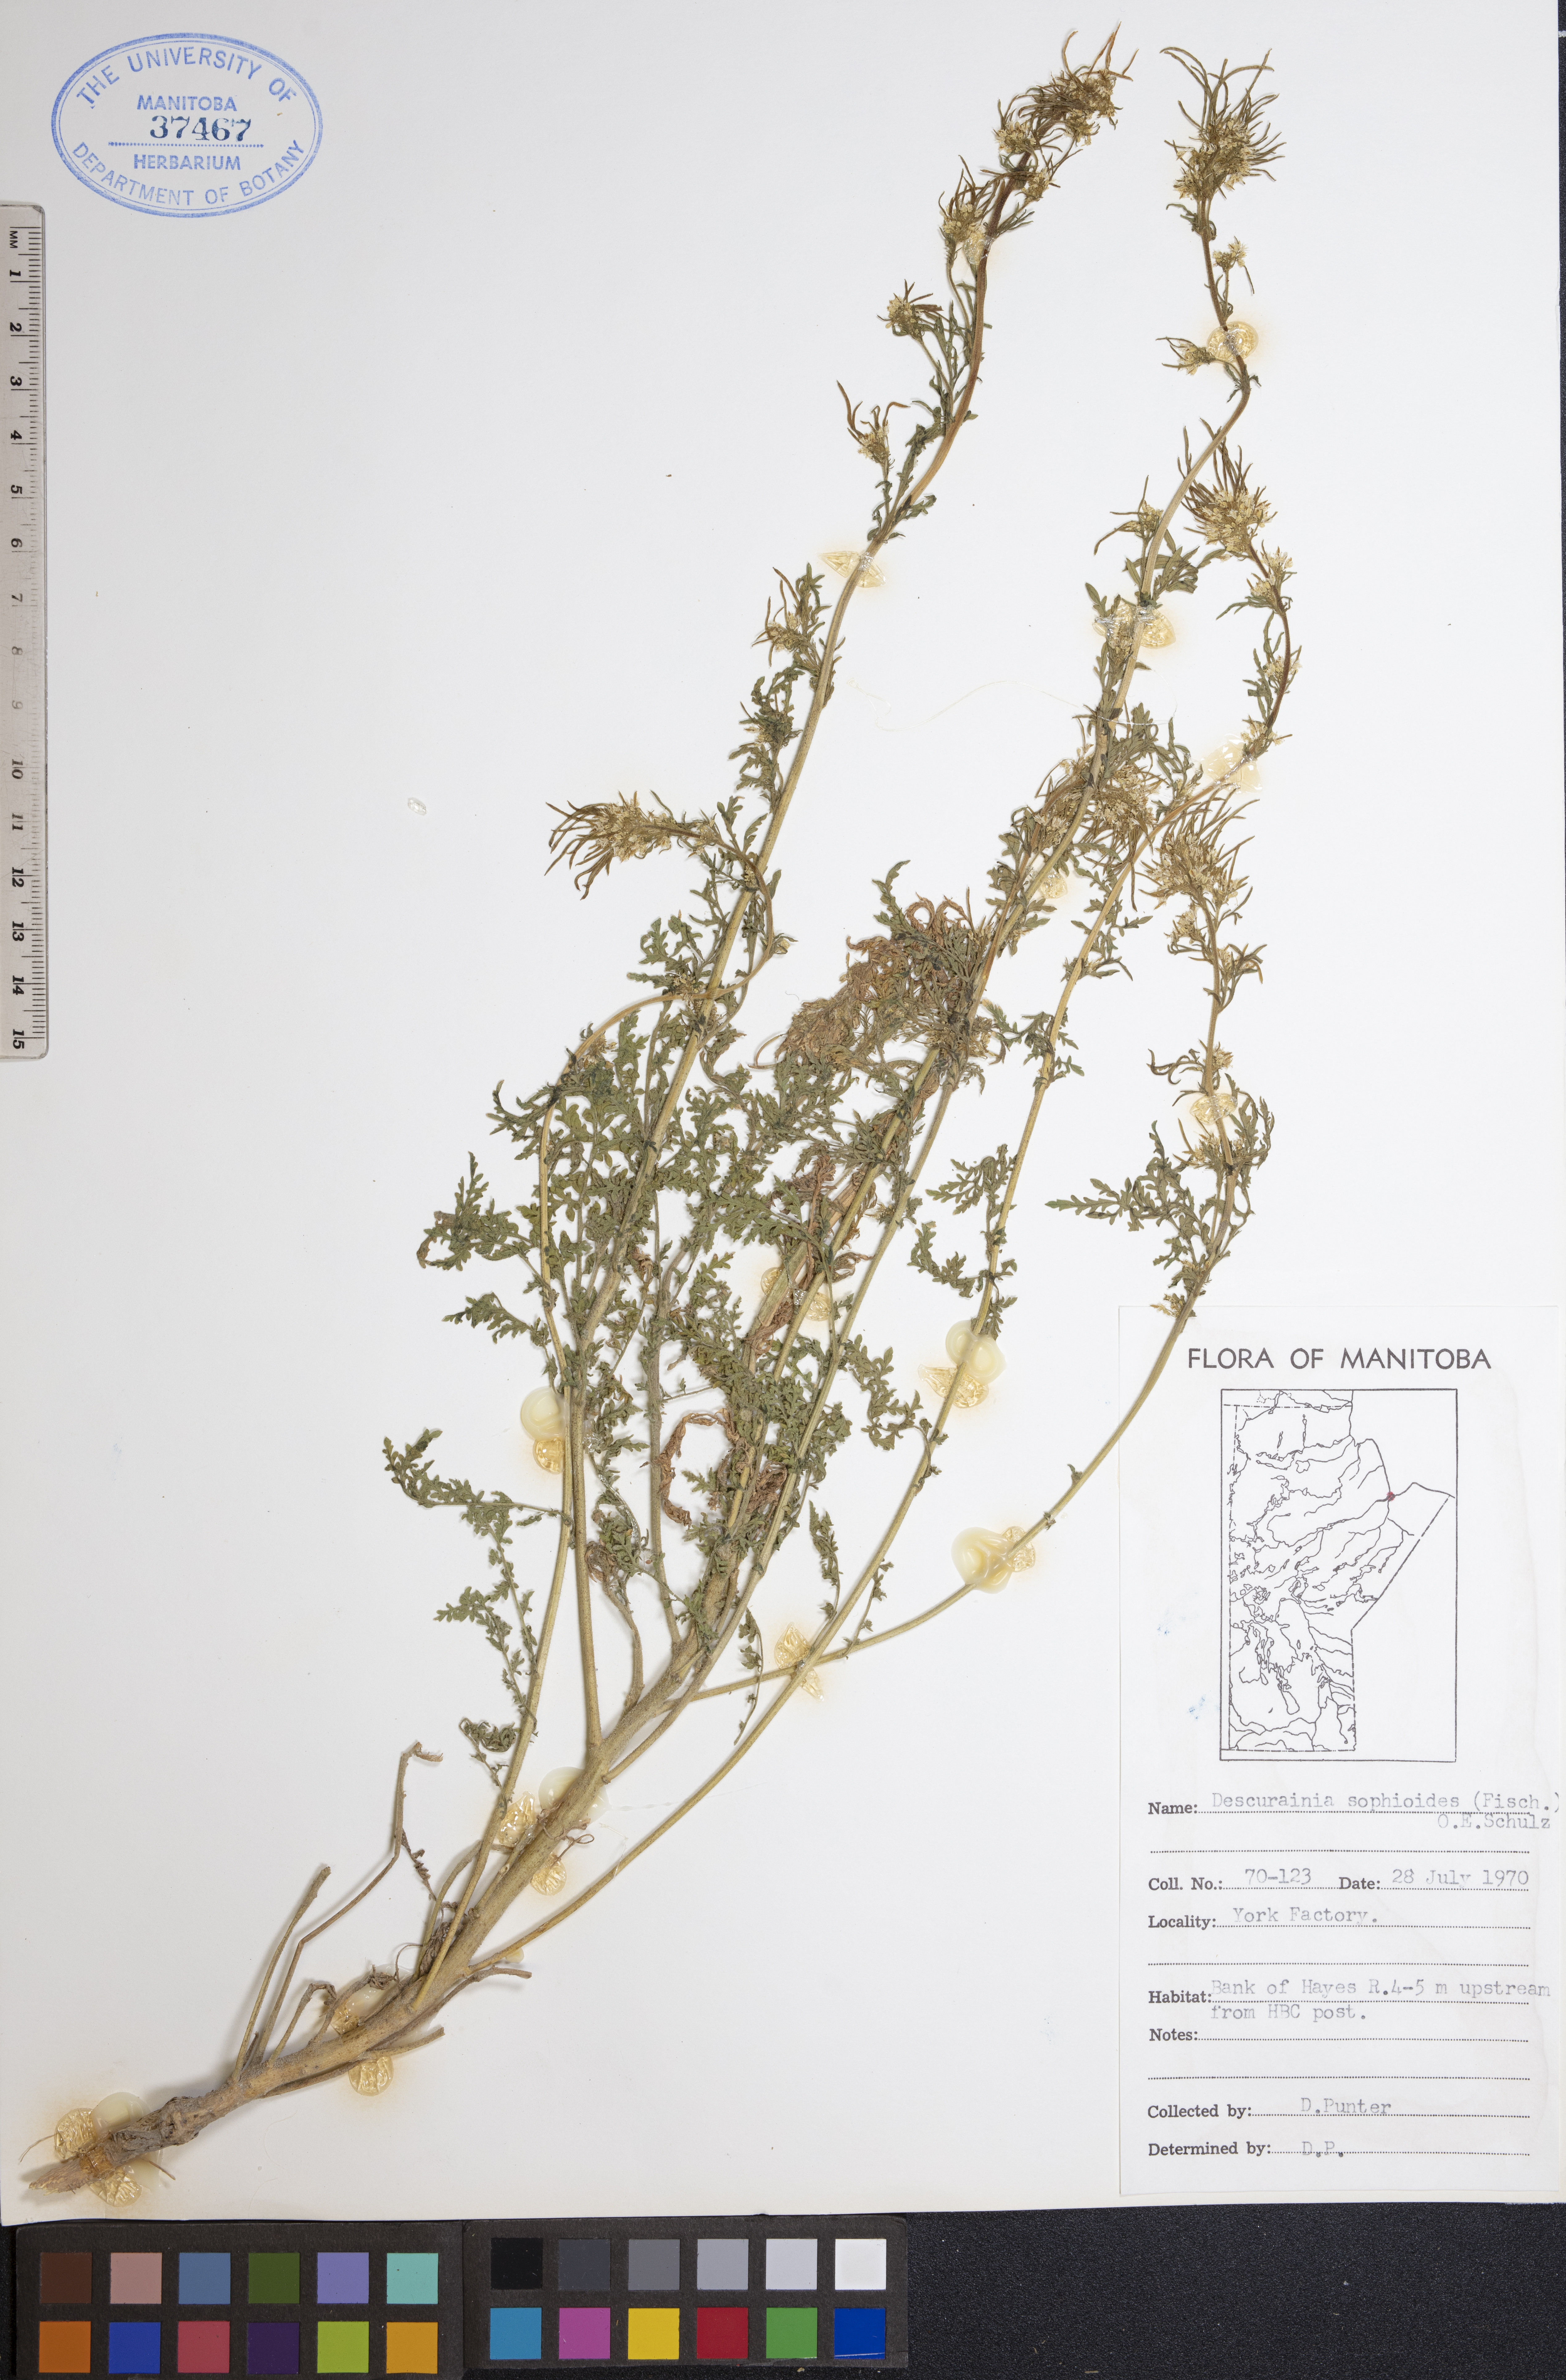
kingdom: Plantae
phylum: Tracheophyta
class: Magnoliopsida
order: Brassicales
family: Brassicaceae
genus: Descurainia
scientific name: Descurainia sophioides
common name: Northern tansy mustard
